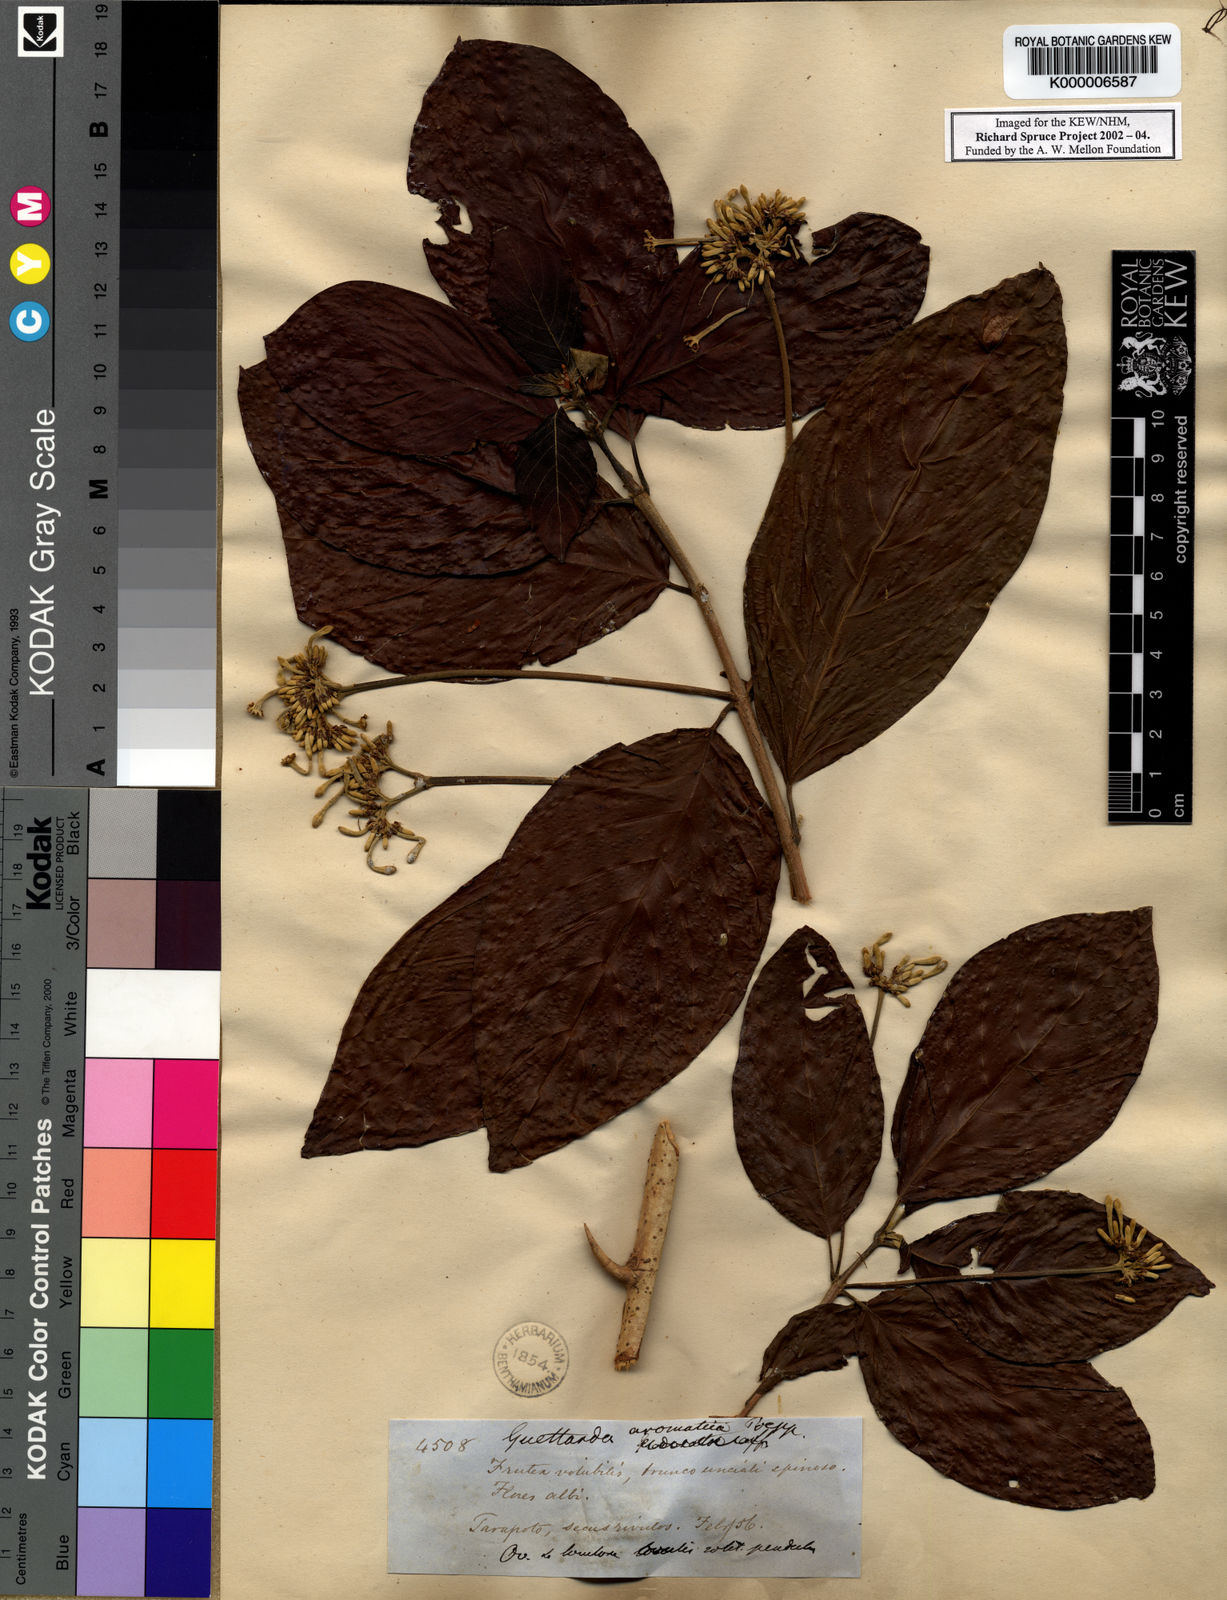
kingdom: Plantae
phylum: Tracheophyta
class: Magnoliopsida
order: Gentianales
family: Rubiaceae
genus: Guettarda
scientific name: Guettarda aromatica
